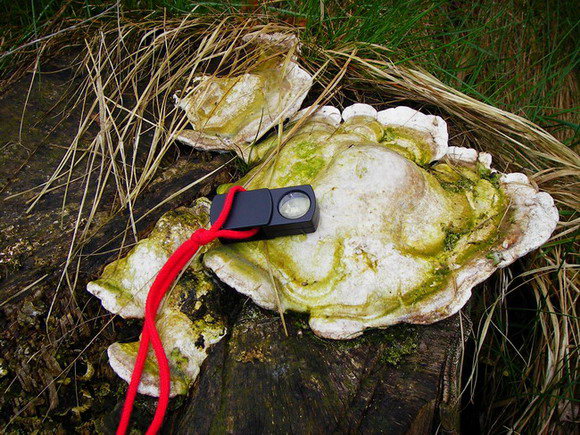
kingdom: Fungi
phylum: Basidiomycota
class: Agaricomycetes
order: Polyporales
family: Polyporaceae
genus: Trametes
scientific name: Trametes gibbosa
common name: puklet læderporesvamp
